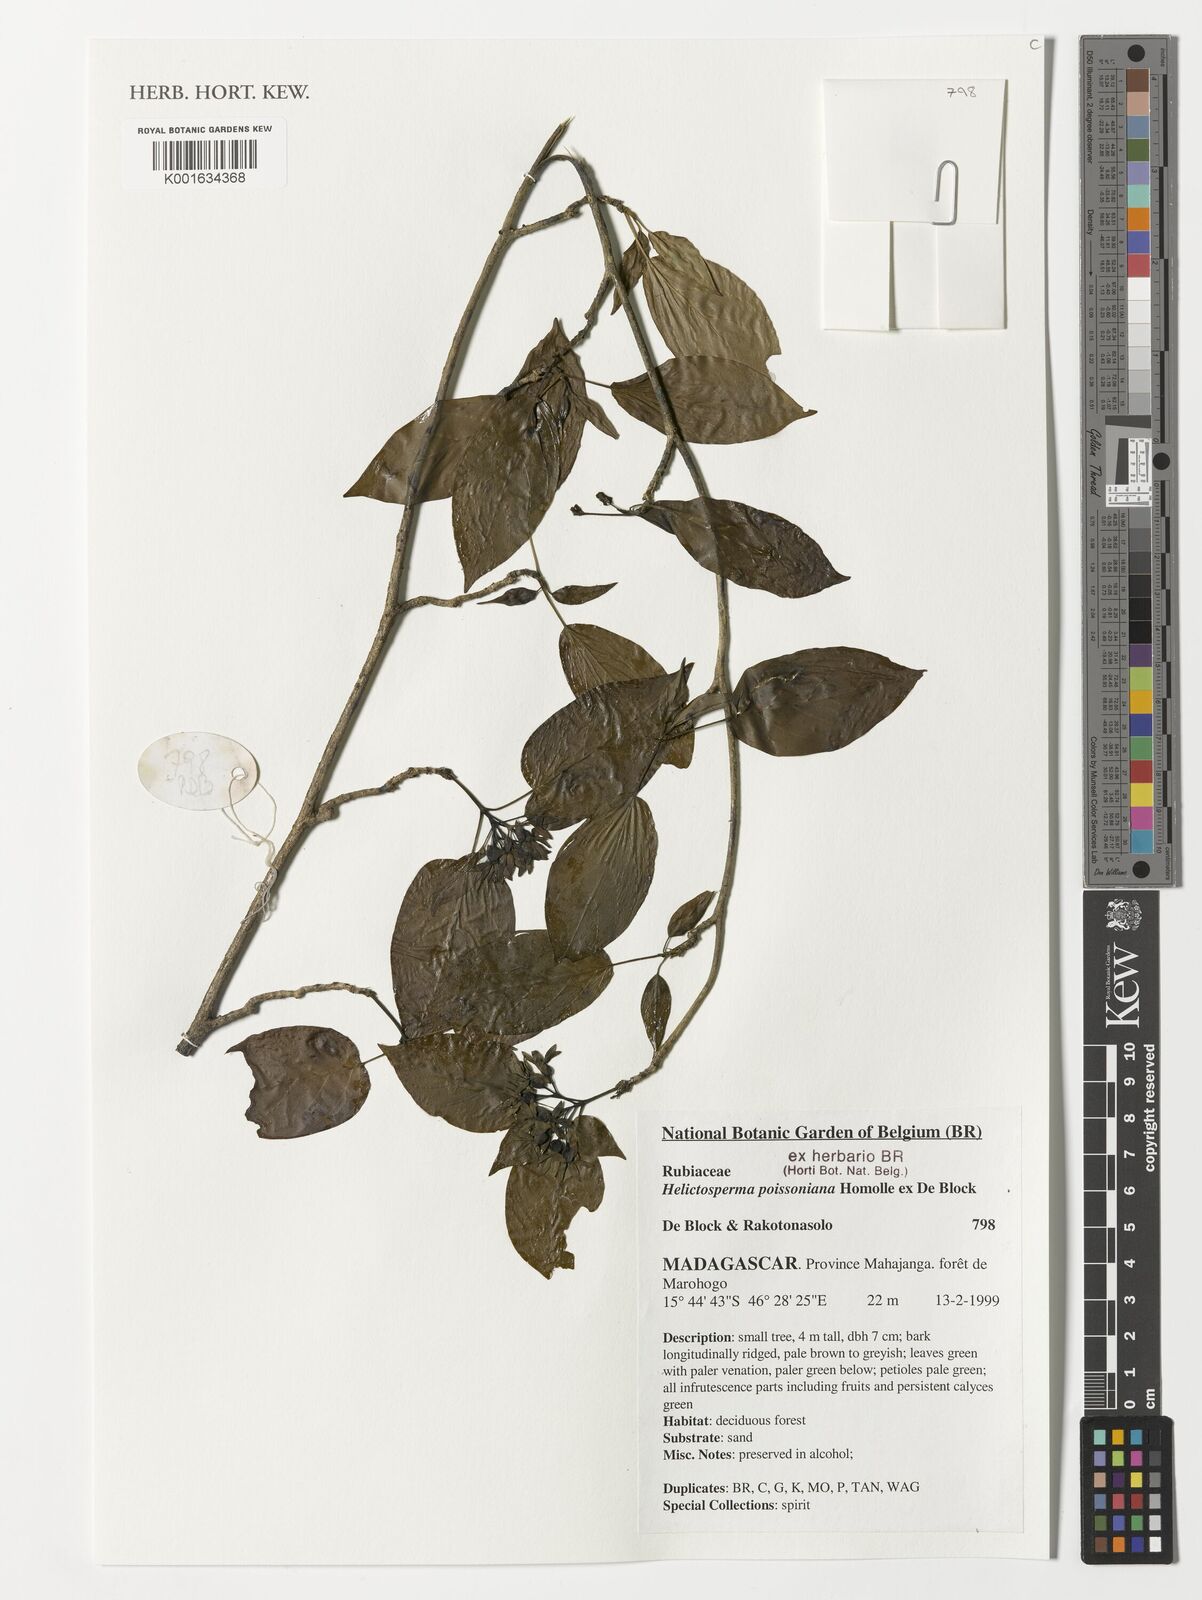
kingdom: Plantae
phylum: Tracheophyta
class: Magnoliopsida
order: Gentianales
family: Rubiaceae
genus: Helictosperma
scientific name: Helictosperma poissonianum
